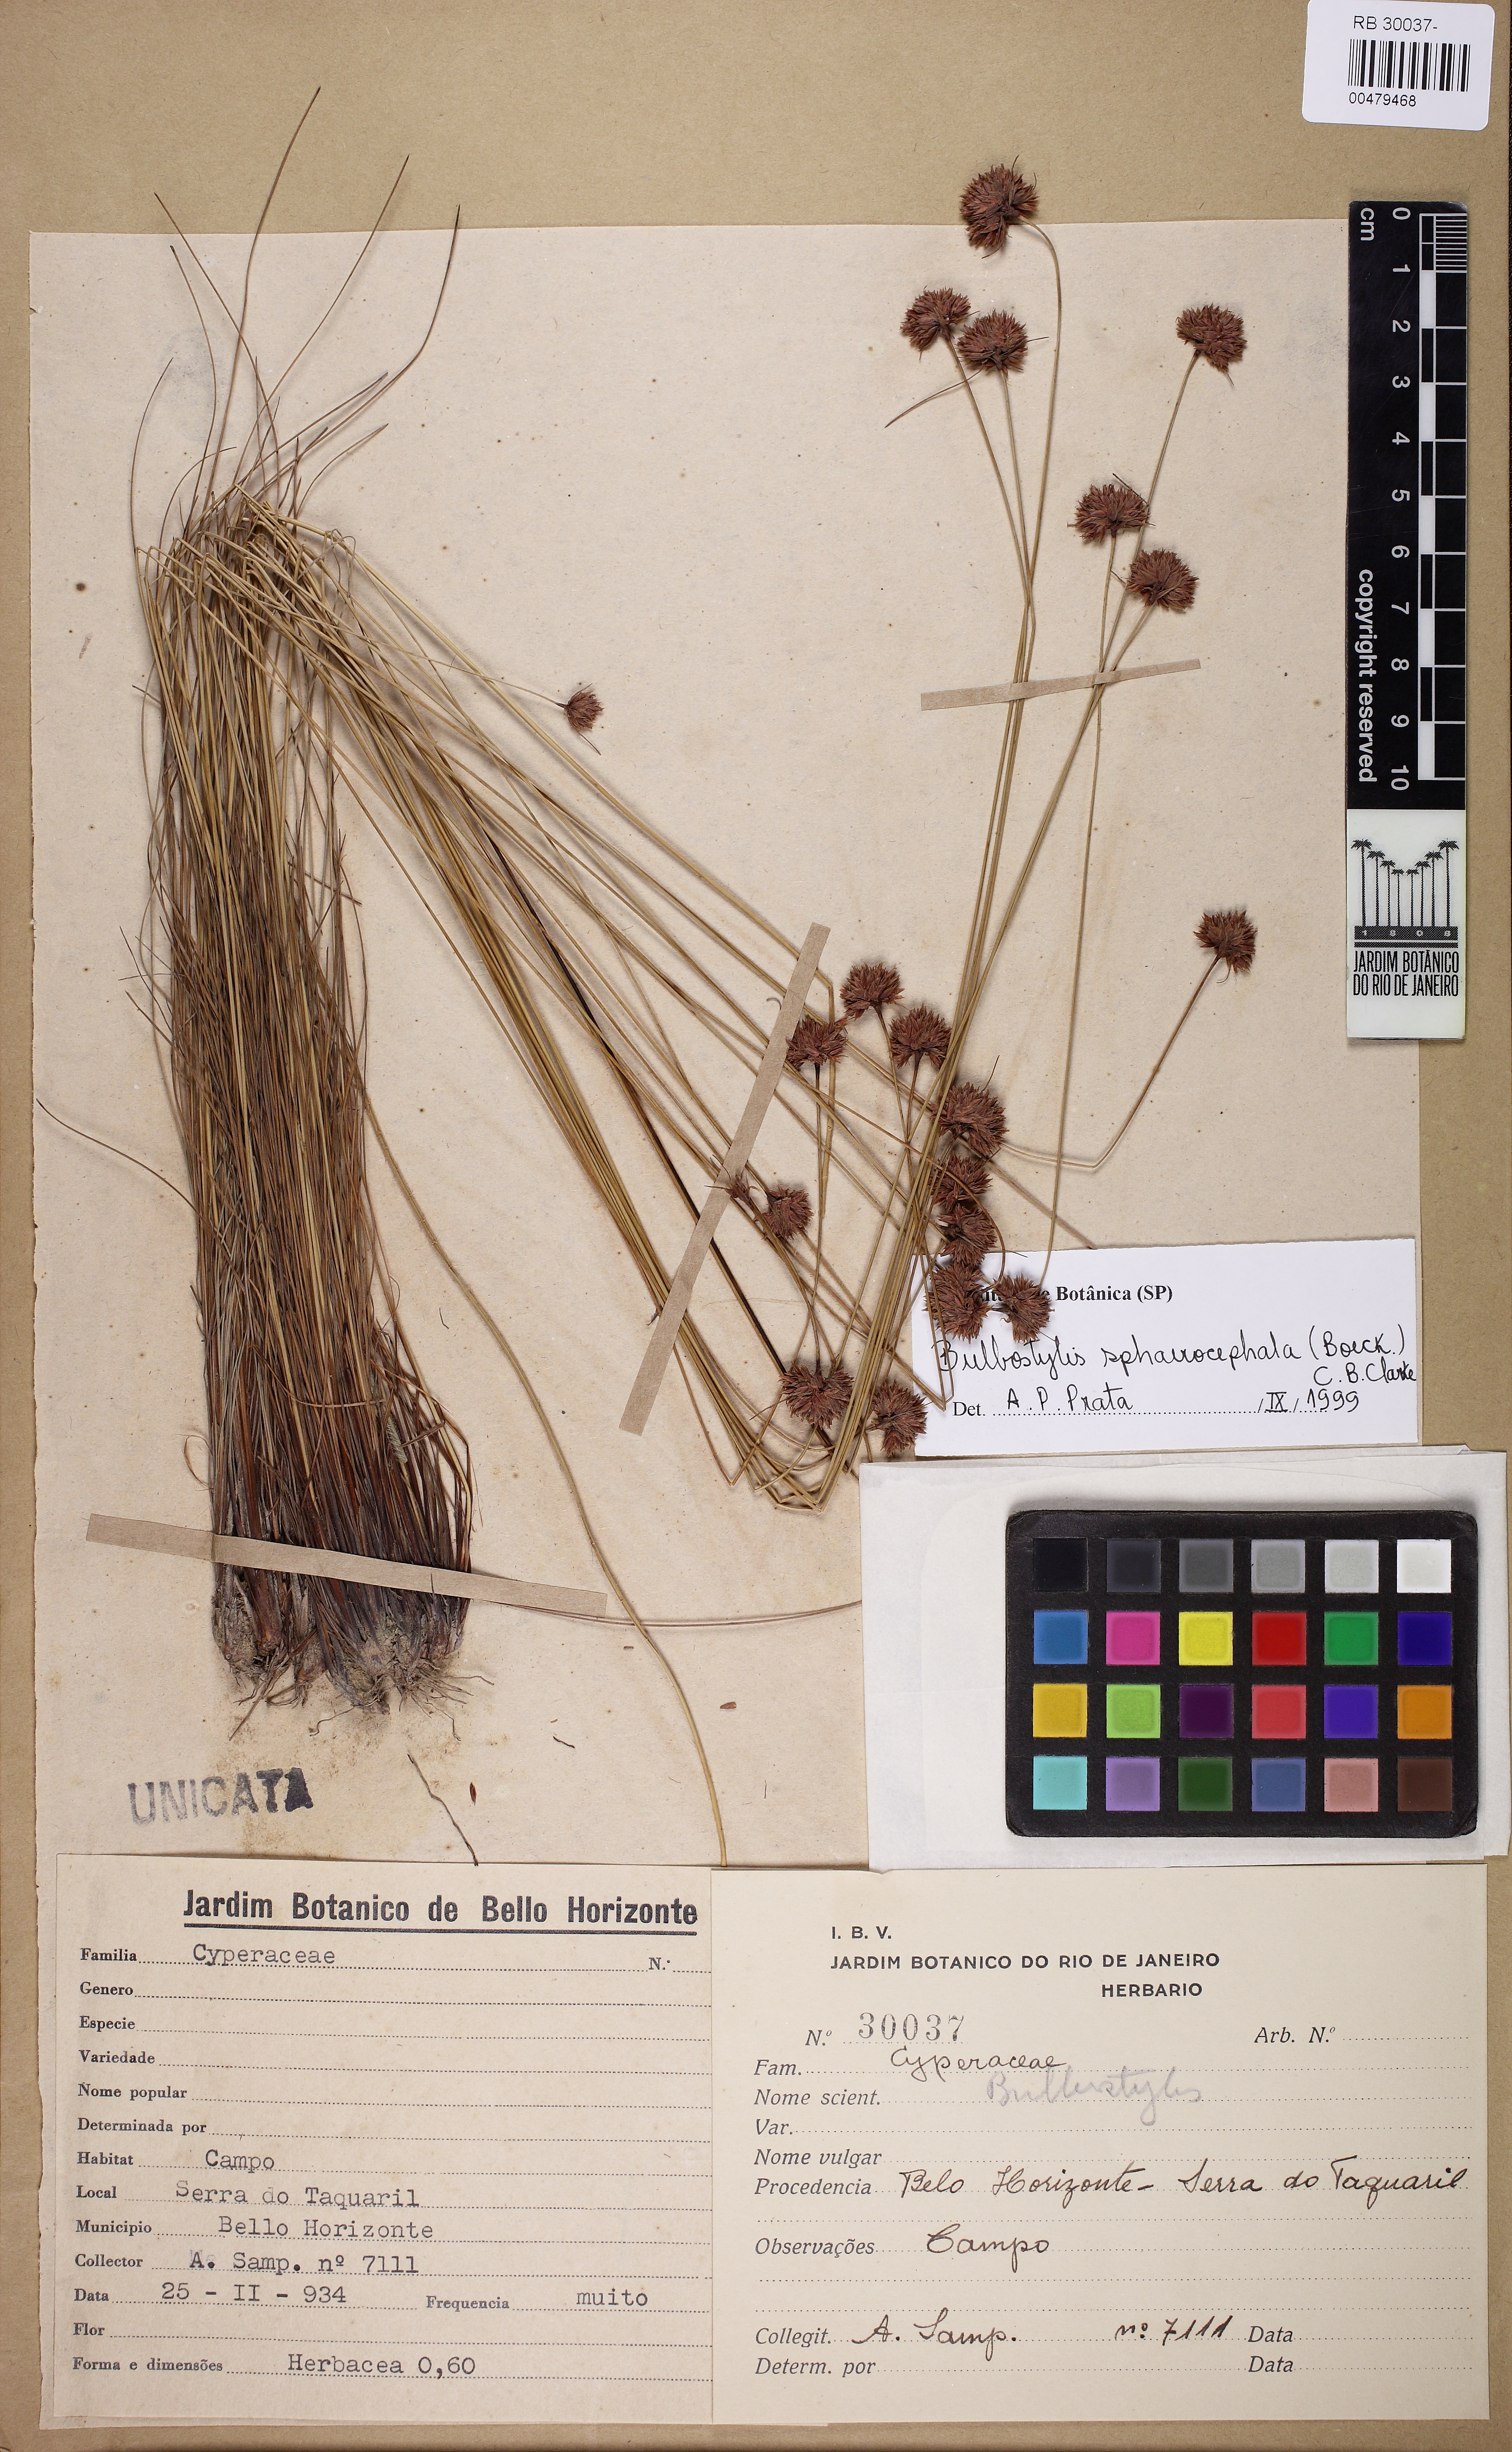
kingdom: Plantae
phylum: Tracheophyta
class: Liliopsida
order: Poales
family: Cyperaceae
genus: Bulbostylis
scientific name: Bulbostylis sphaerocephala
